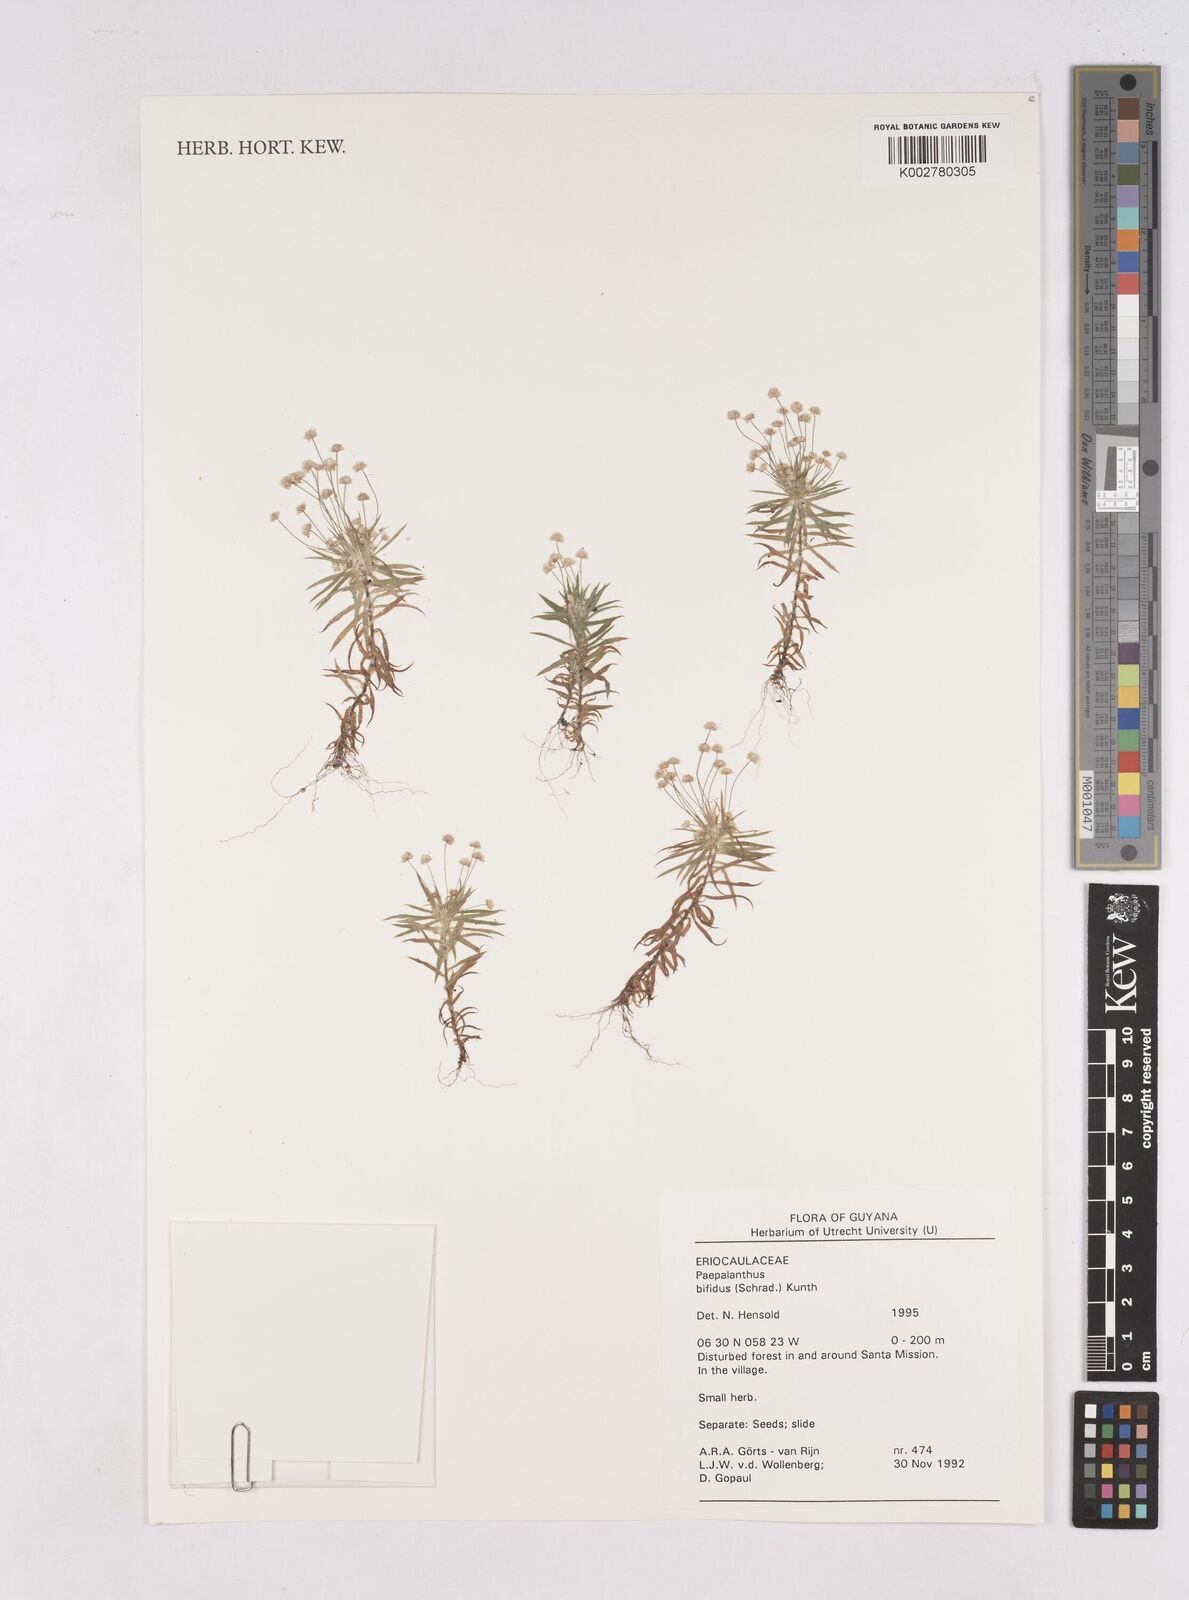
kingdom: Plantae
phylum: Tracheophyta
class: Liliopsida
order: Poales
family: Eriocaulaceae
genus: Paepalanthus
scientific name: Paepalanthus bifidus
